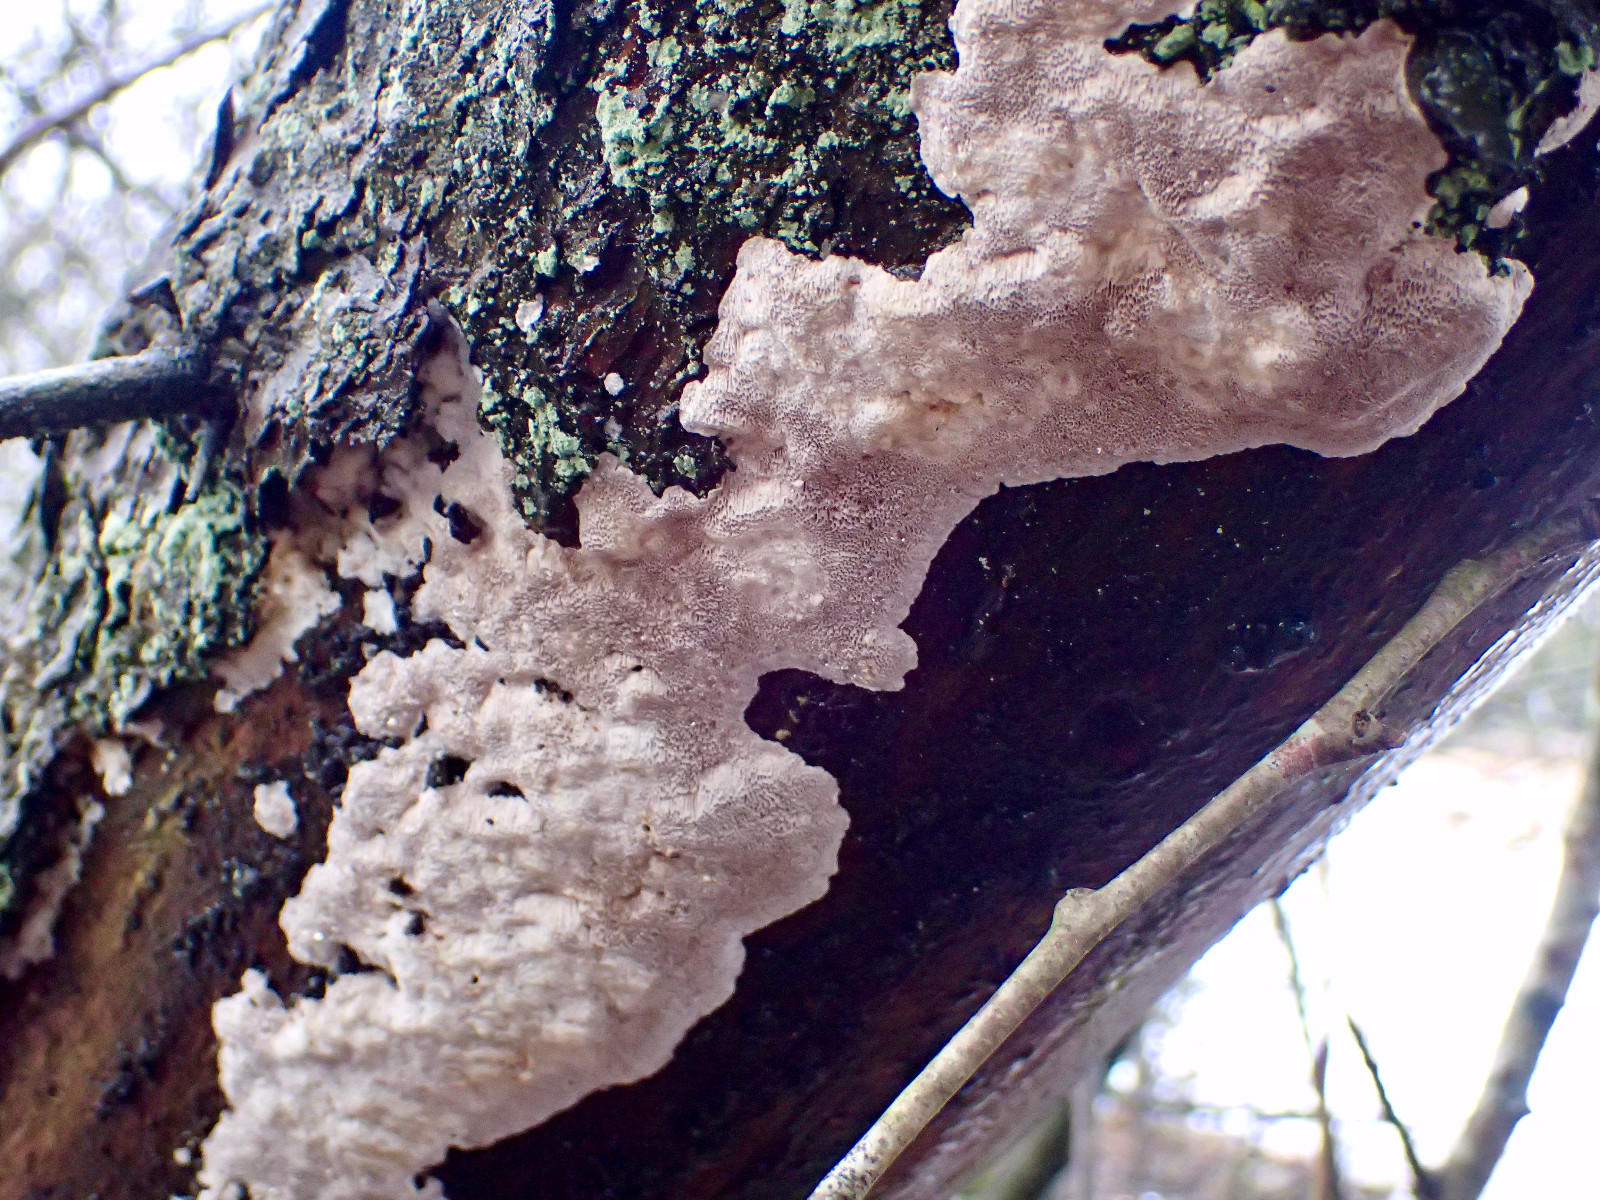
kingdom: Fungi
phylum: Basidiomycota
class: Agaricomycetes
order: Polyporales
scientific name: Polyporales
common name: poresvampordenen
